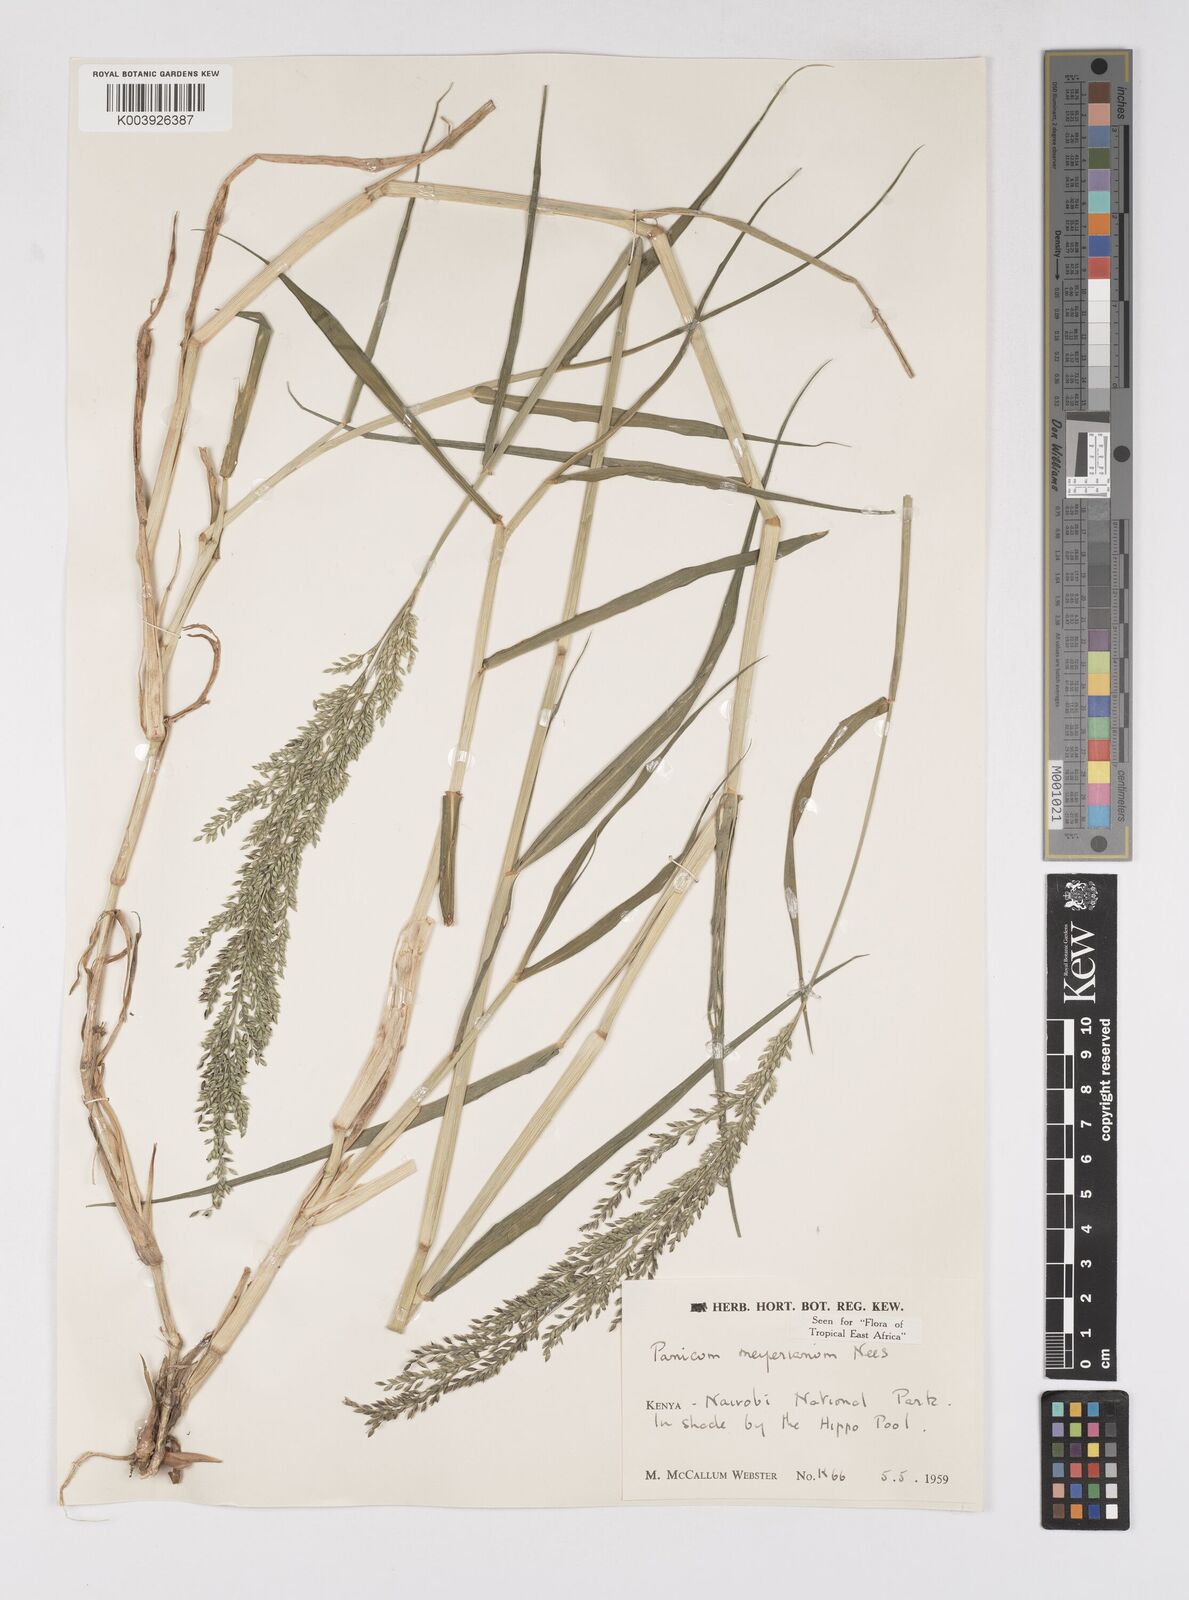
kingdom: Plantae
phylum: Tracheophyta
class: Liliopsida
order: Poales
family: Poaceae
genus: Eriochloa
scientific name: Eriochloa meyeriana
